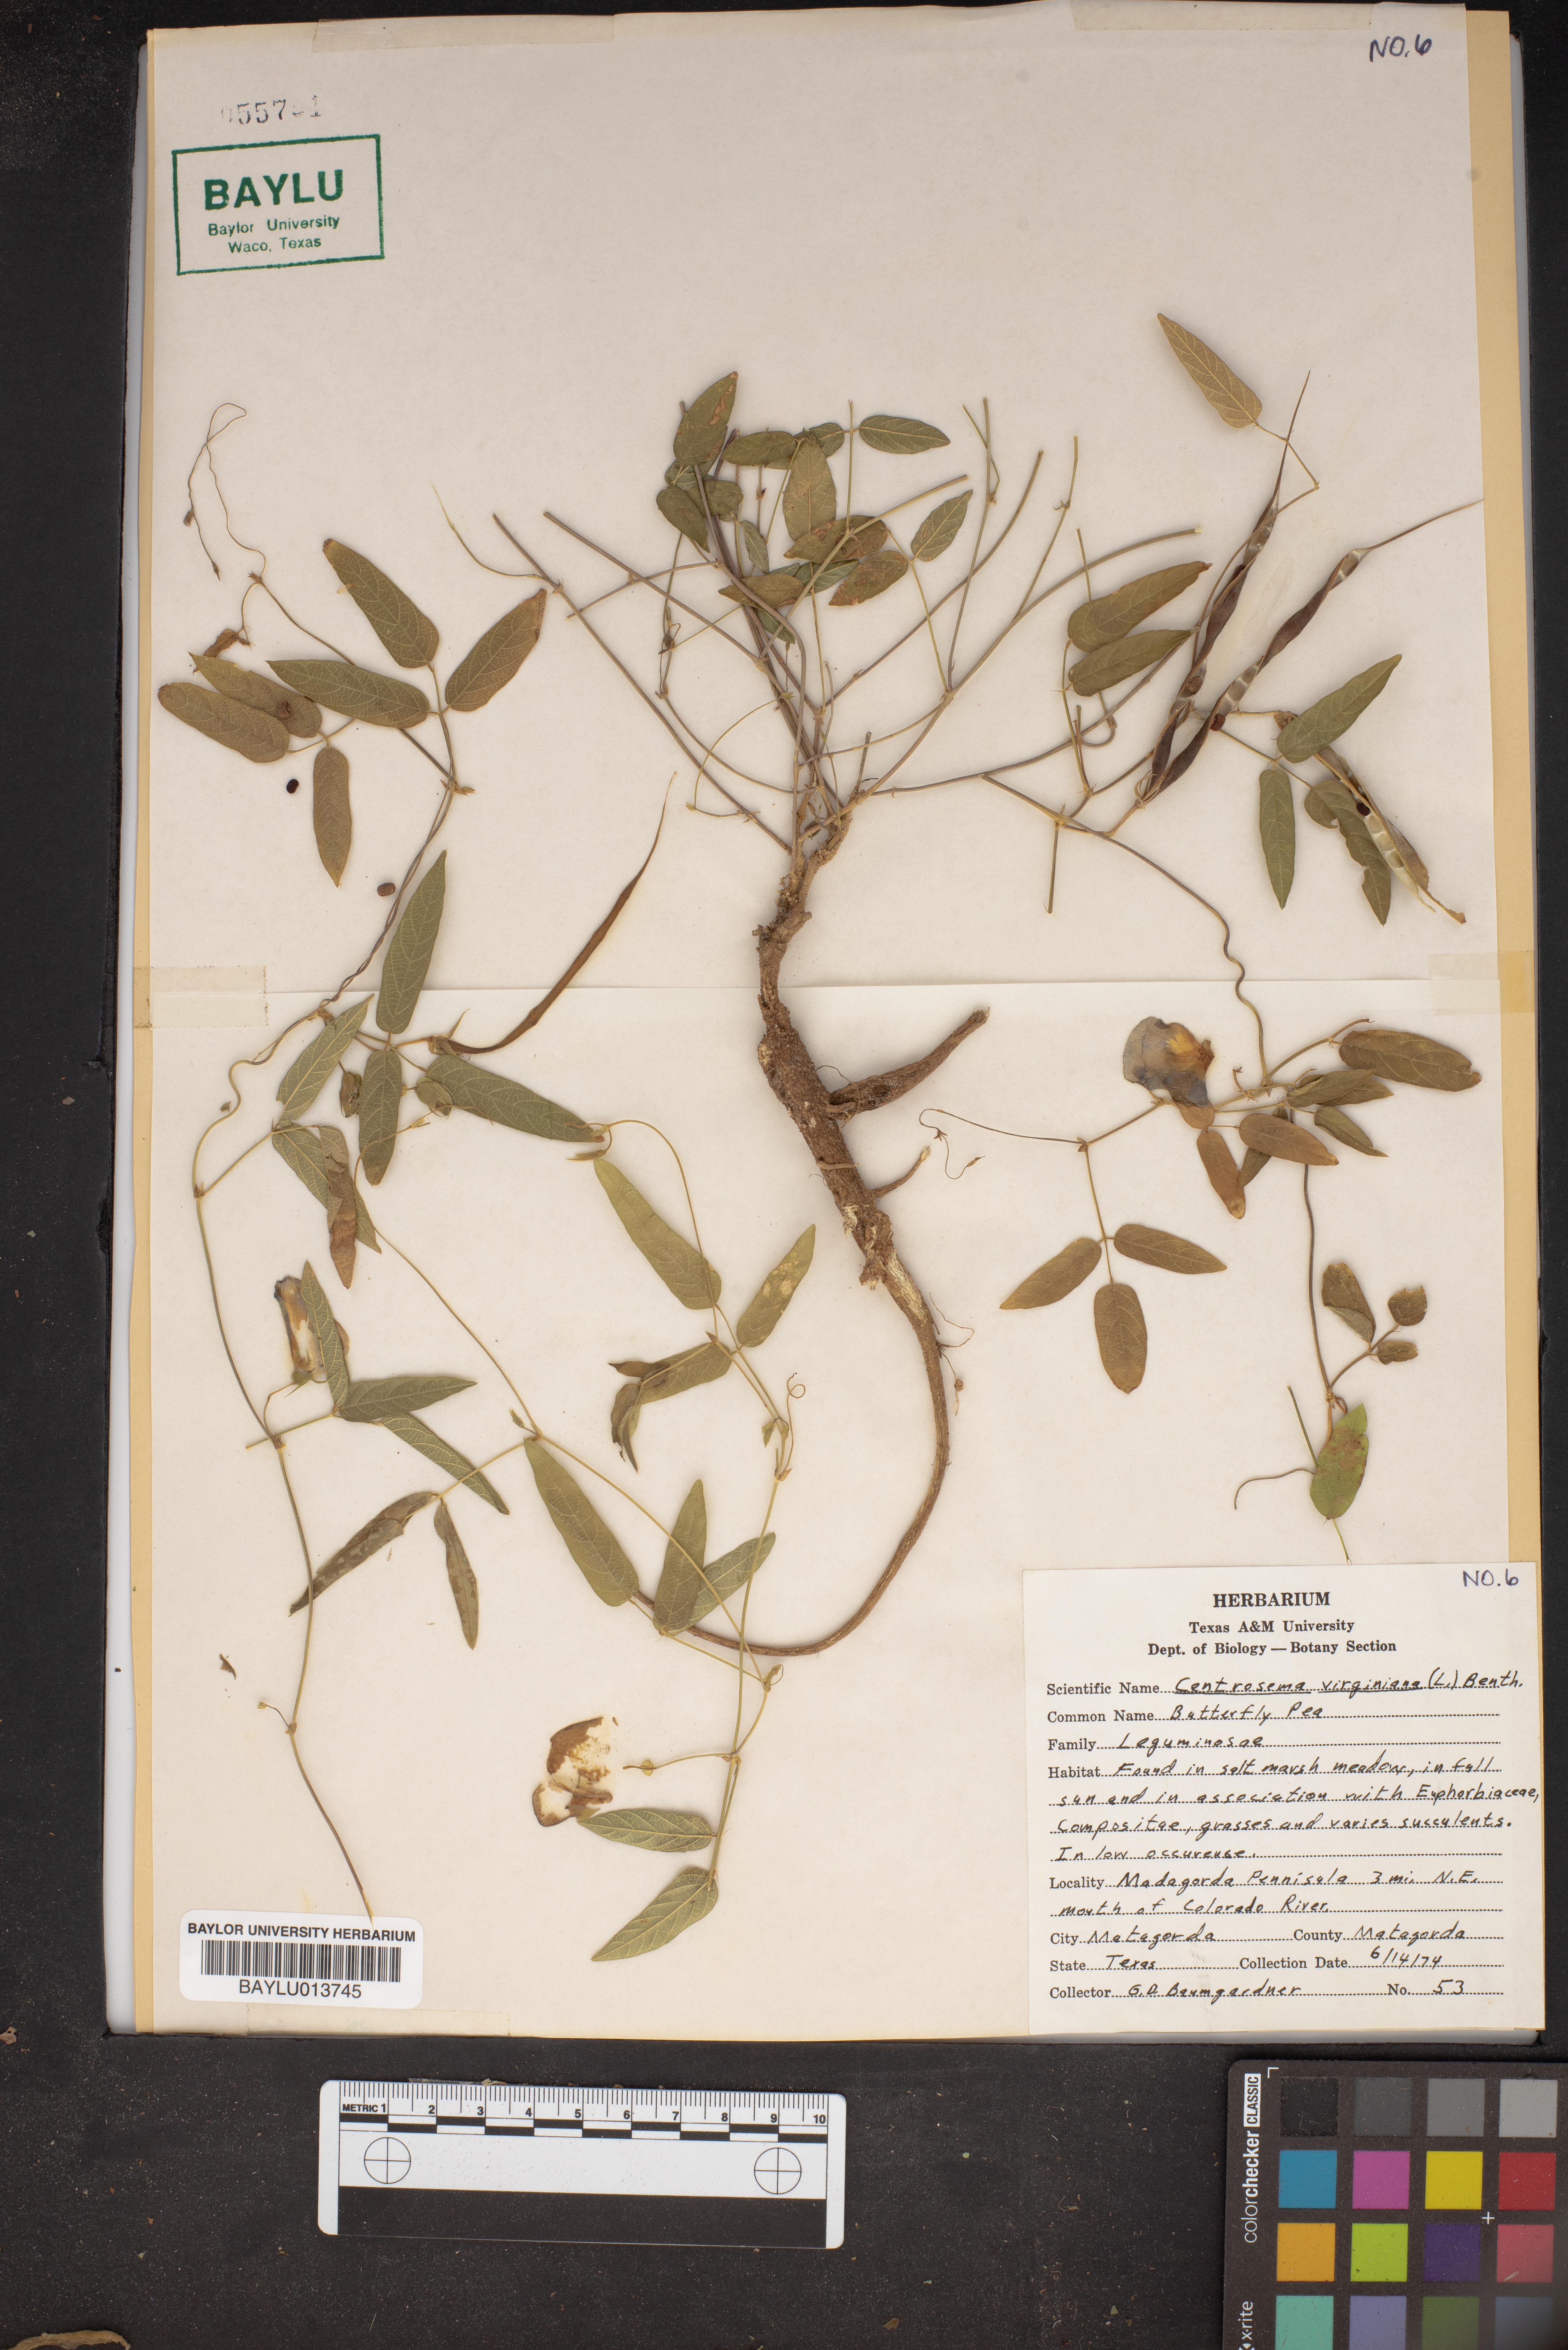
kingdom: Plantae
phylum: Tracheophyta
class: Magnoliopsida
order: Fabales
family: Fabaceae
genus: Centrosema
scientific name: Centrosema virginianum
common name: Butterfly-pea
